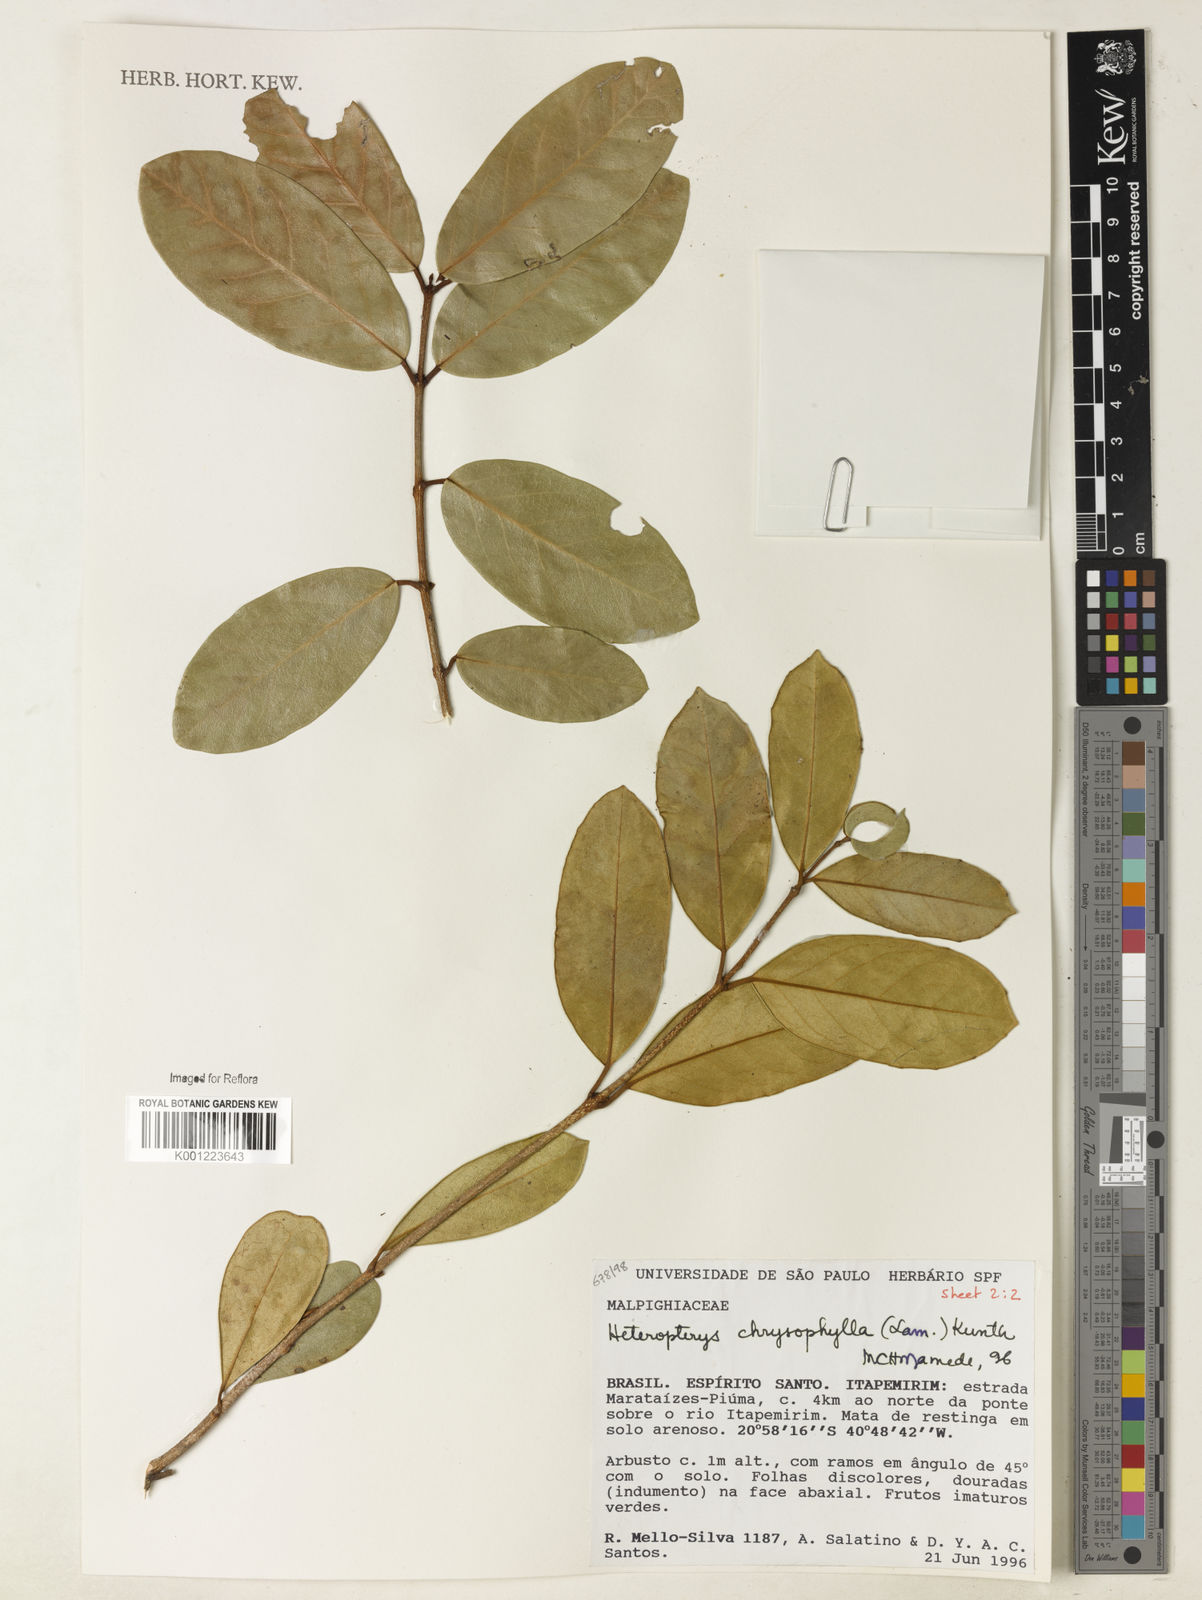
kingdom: Plantae
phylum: Tracheophyta
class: Magnoliopsida
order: Malpighiales
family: Malpighiaceae
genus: Heteropterys
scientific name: Heteropterys chrysophylla
